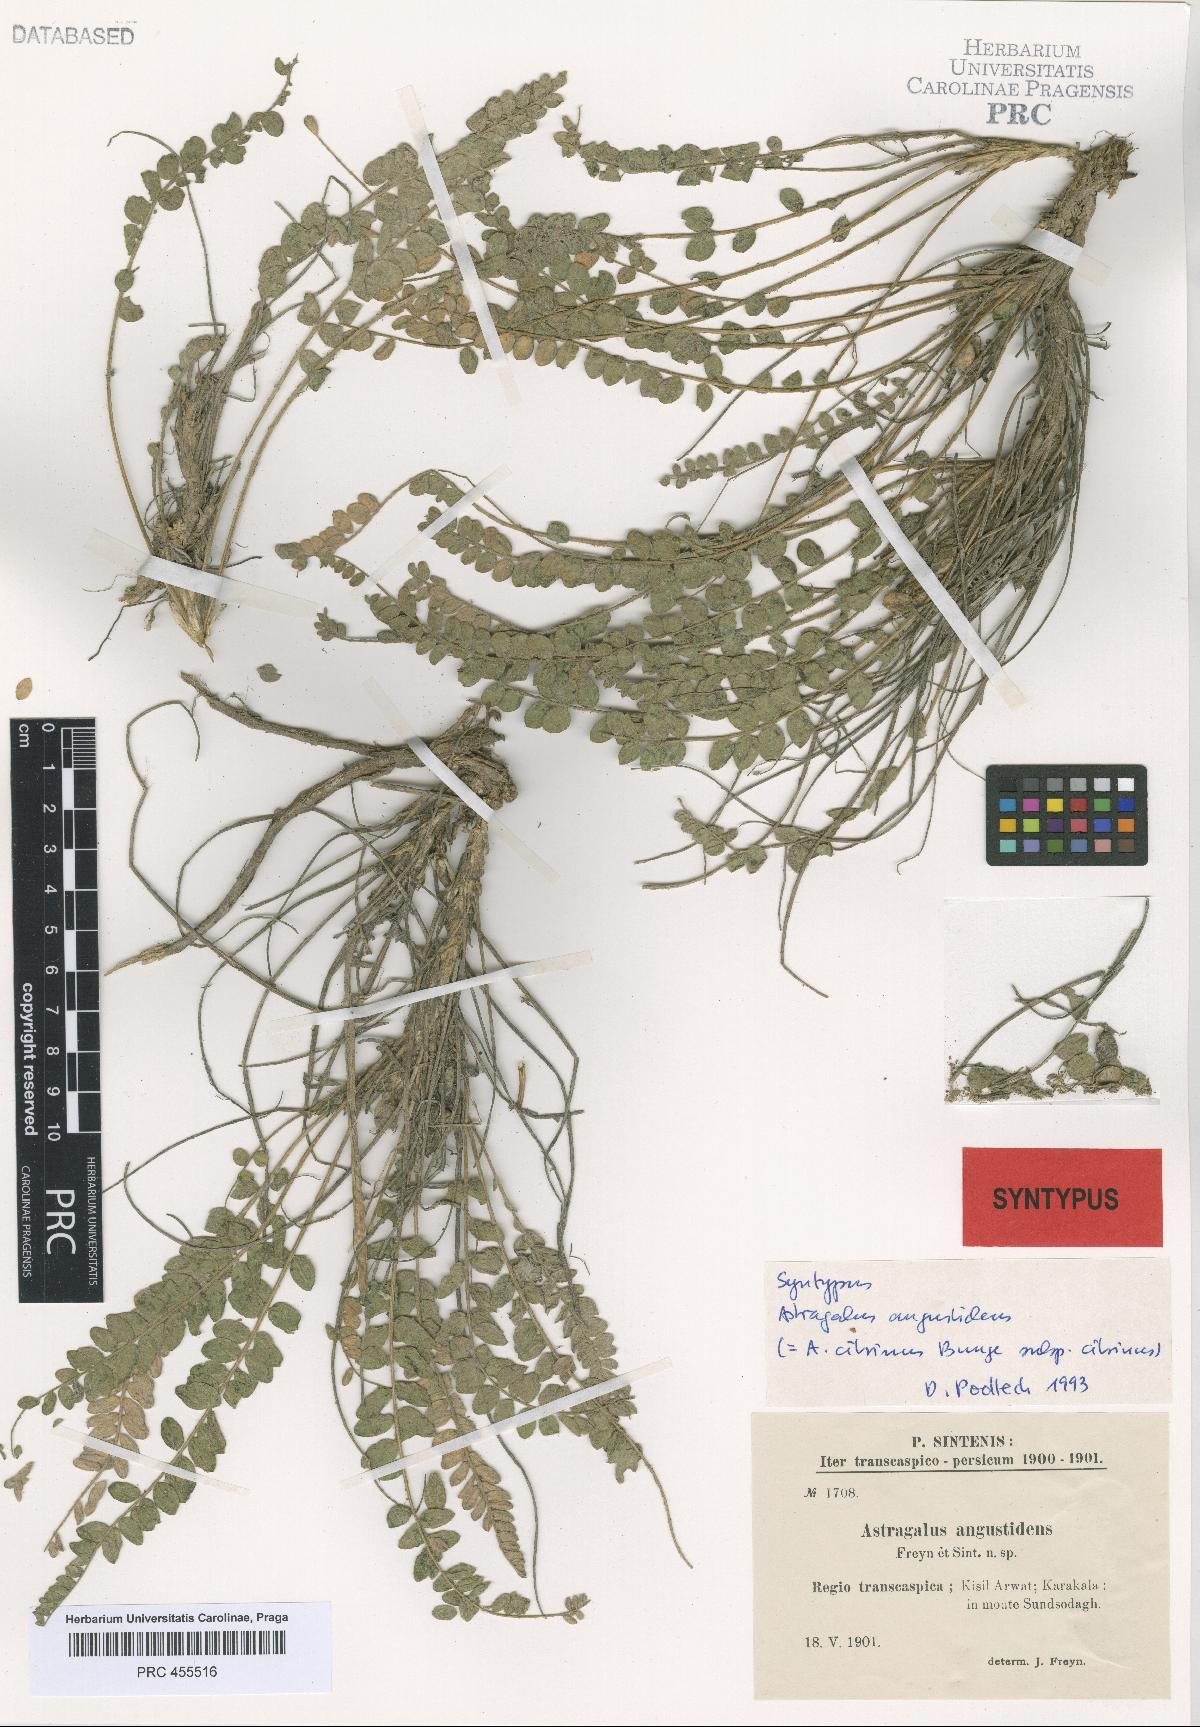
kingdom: Plantae
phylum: Tracheophyta
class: Magnoliopsida
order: Fabales
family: Fabaceae
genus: Astragalus
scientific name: Astragalus citrinus
